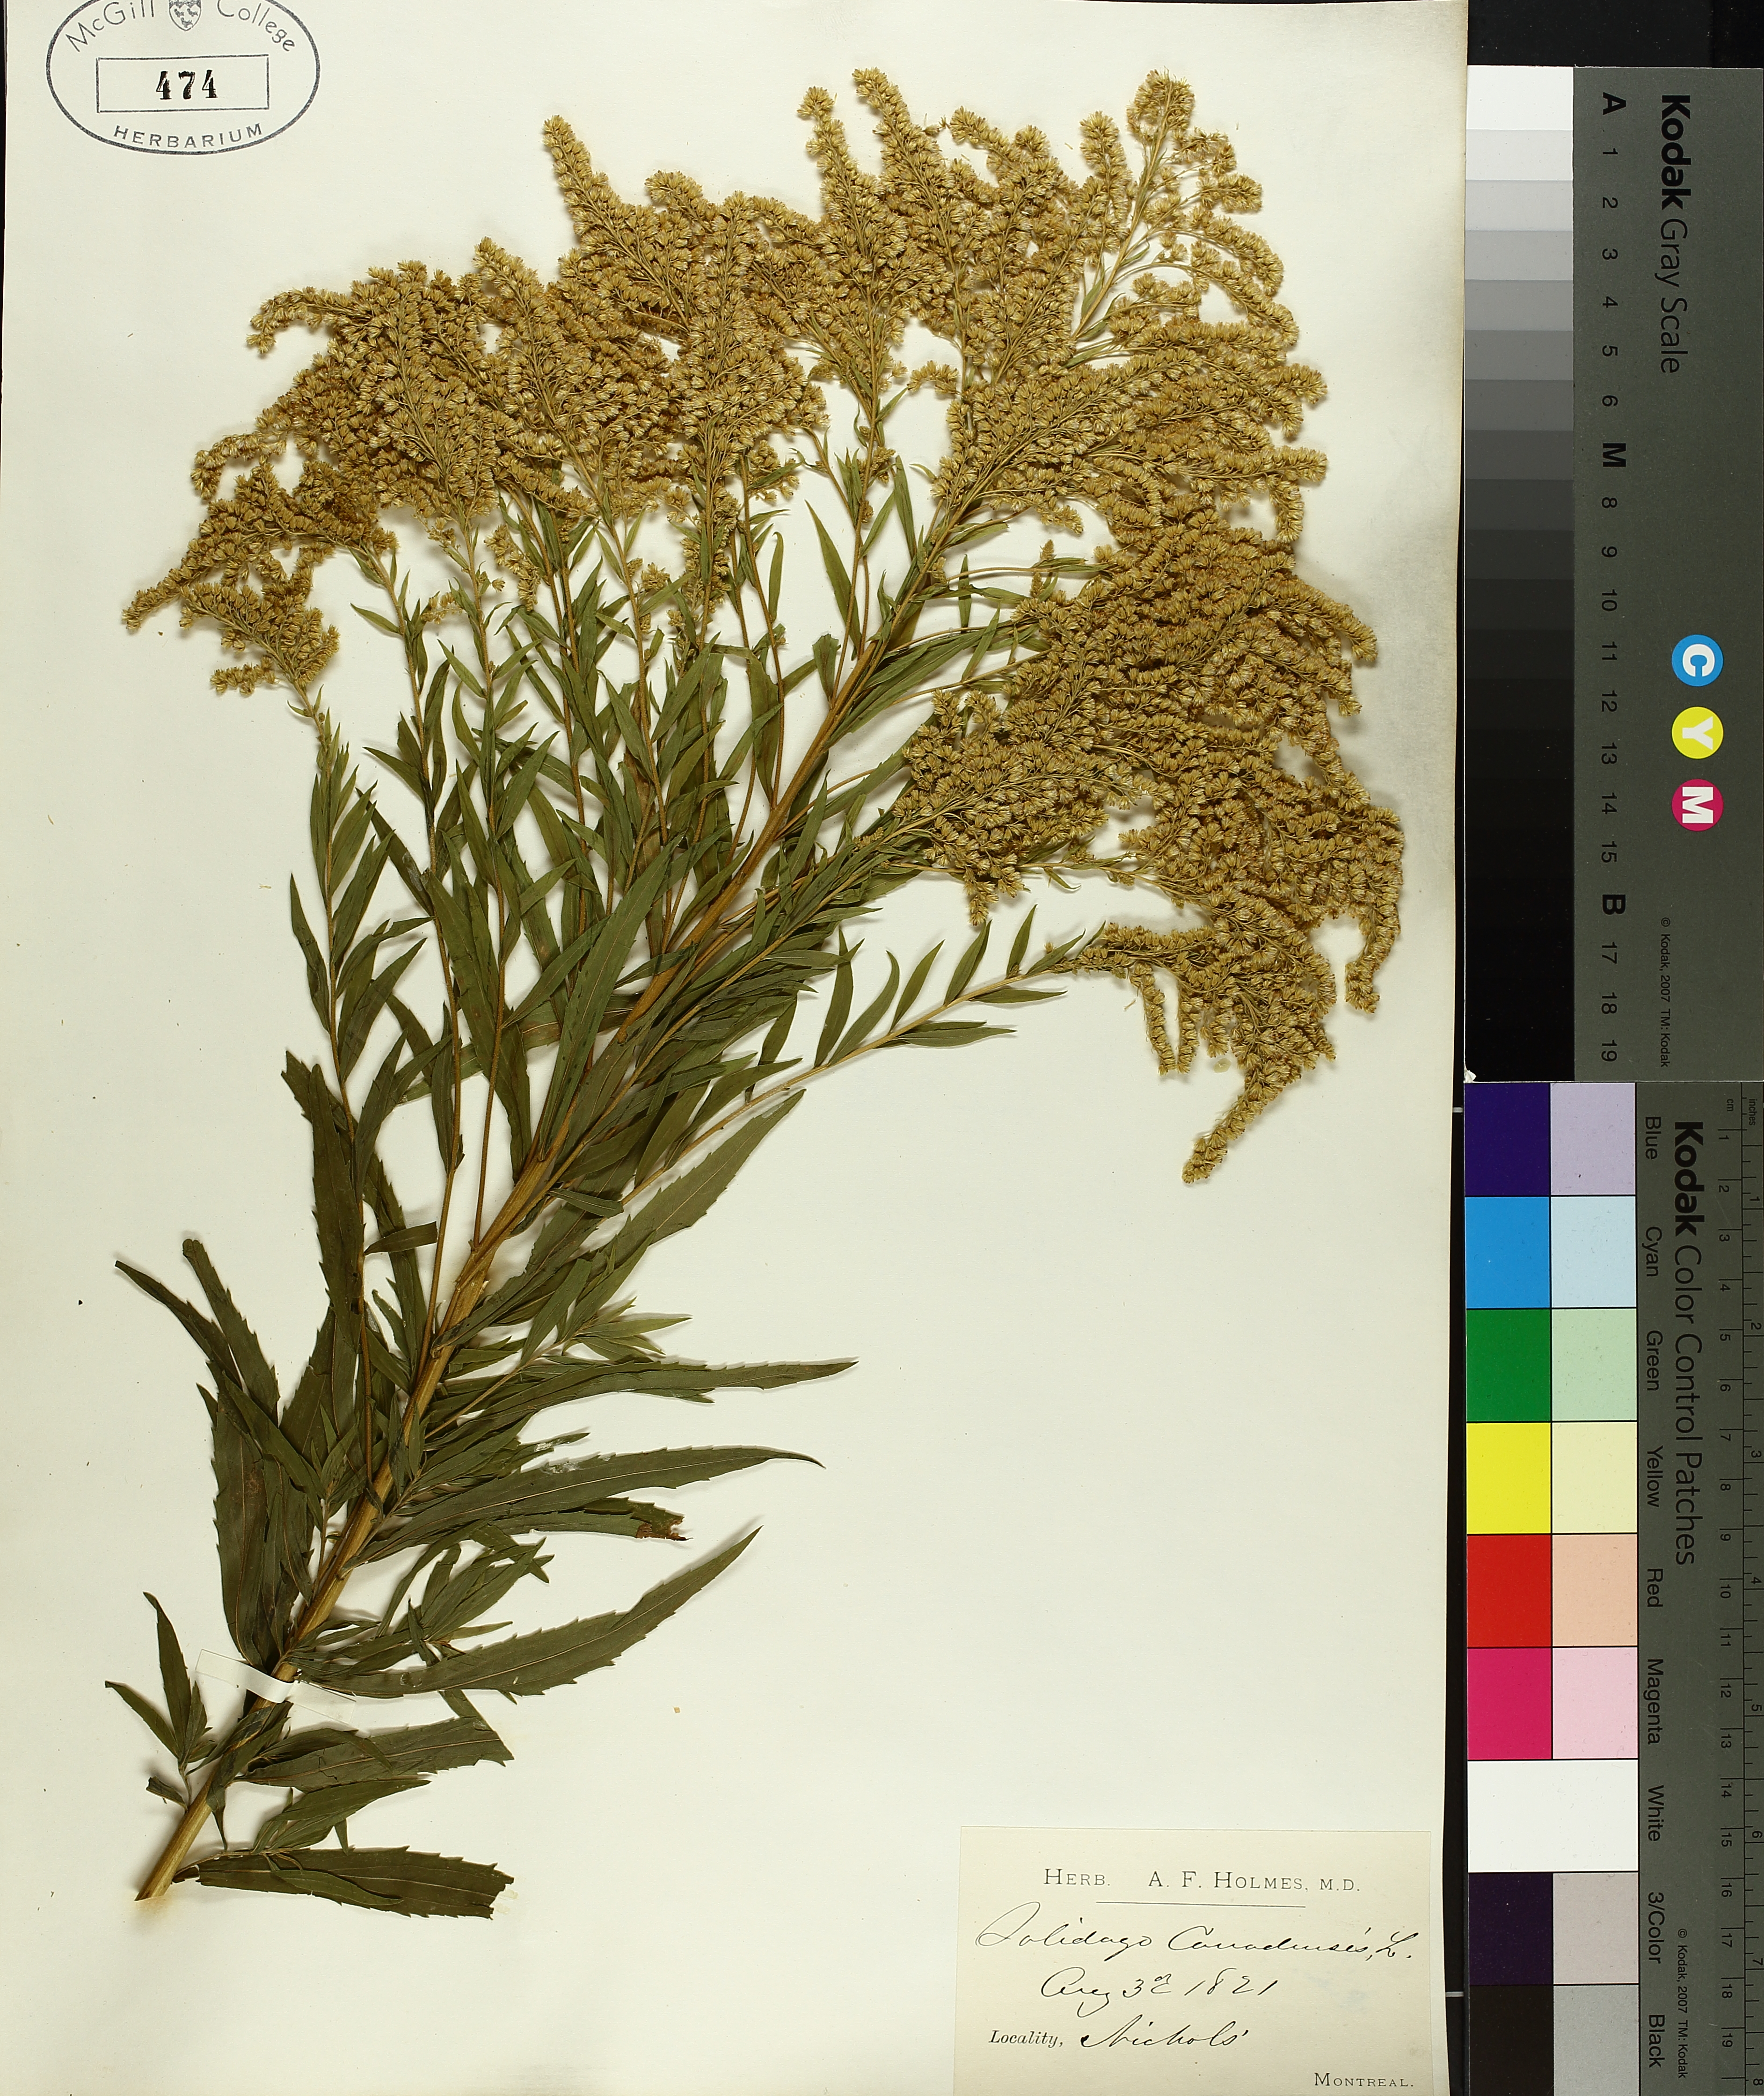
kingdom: Plantae
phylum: Tracheophyta
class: Magnoliopsida
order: Asterales
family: Asteraceae
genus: Solidago
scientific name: Solidago canadensis
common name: Canada goldenrod
